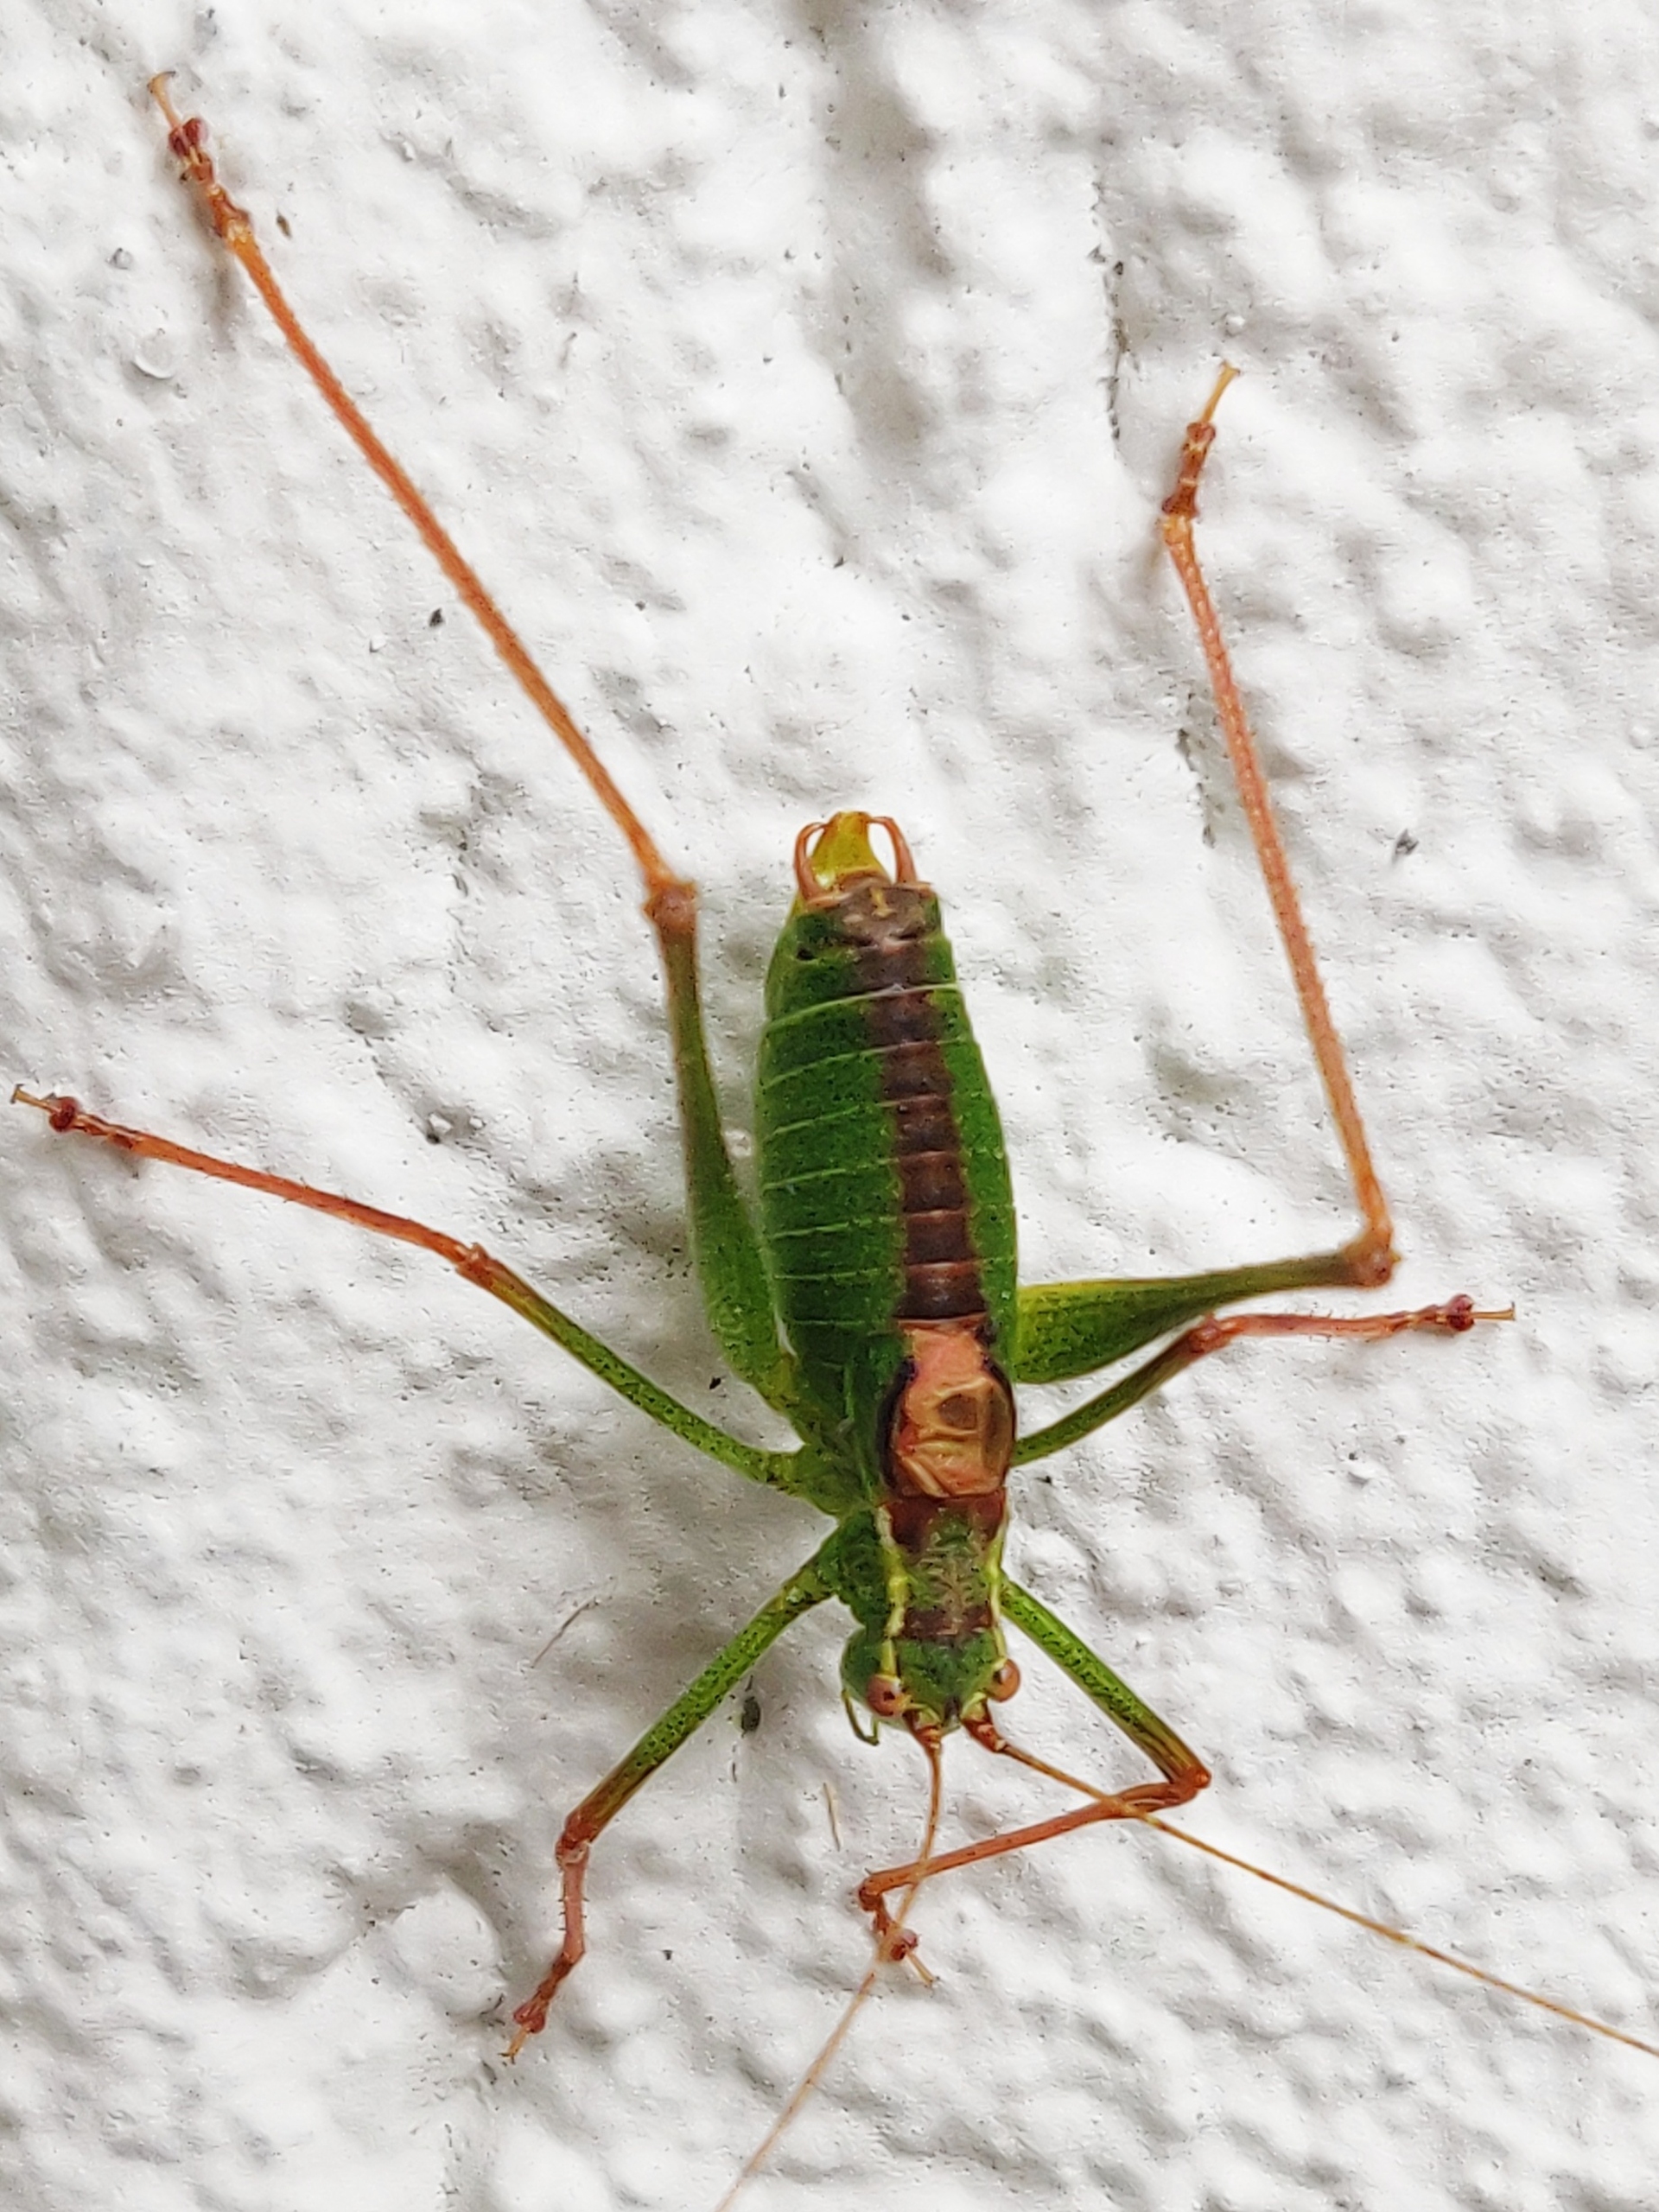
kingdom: Animalia
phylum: Arthropoda
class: Insecta
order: Orthoptera
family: Tettigoniidae
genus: Leptophyes
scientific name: Leptophyes punctatissima
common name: Krumknivgræshoppe
